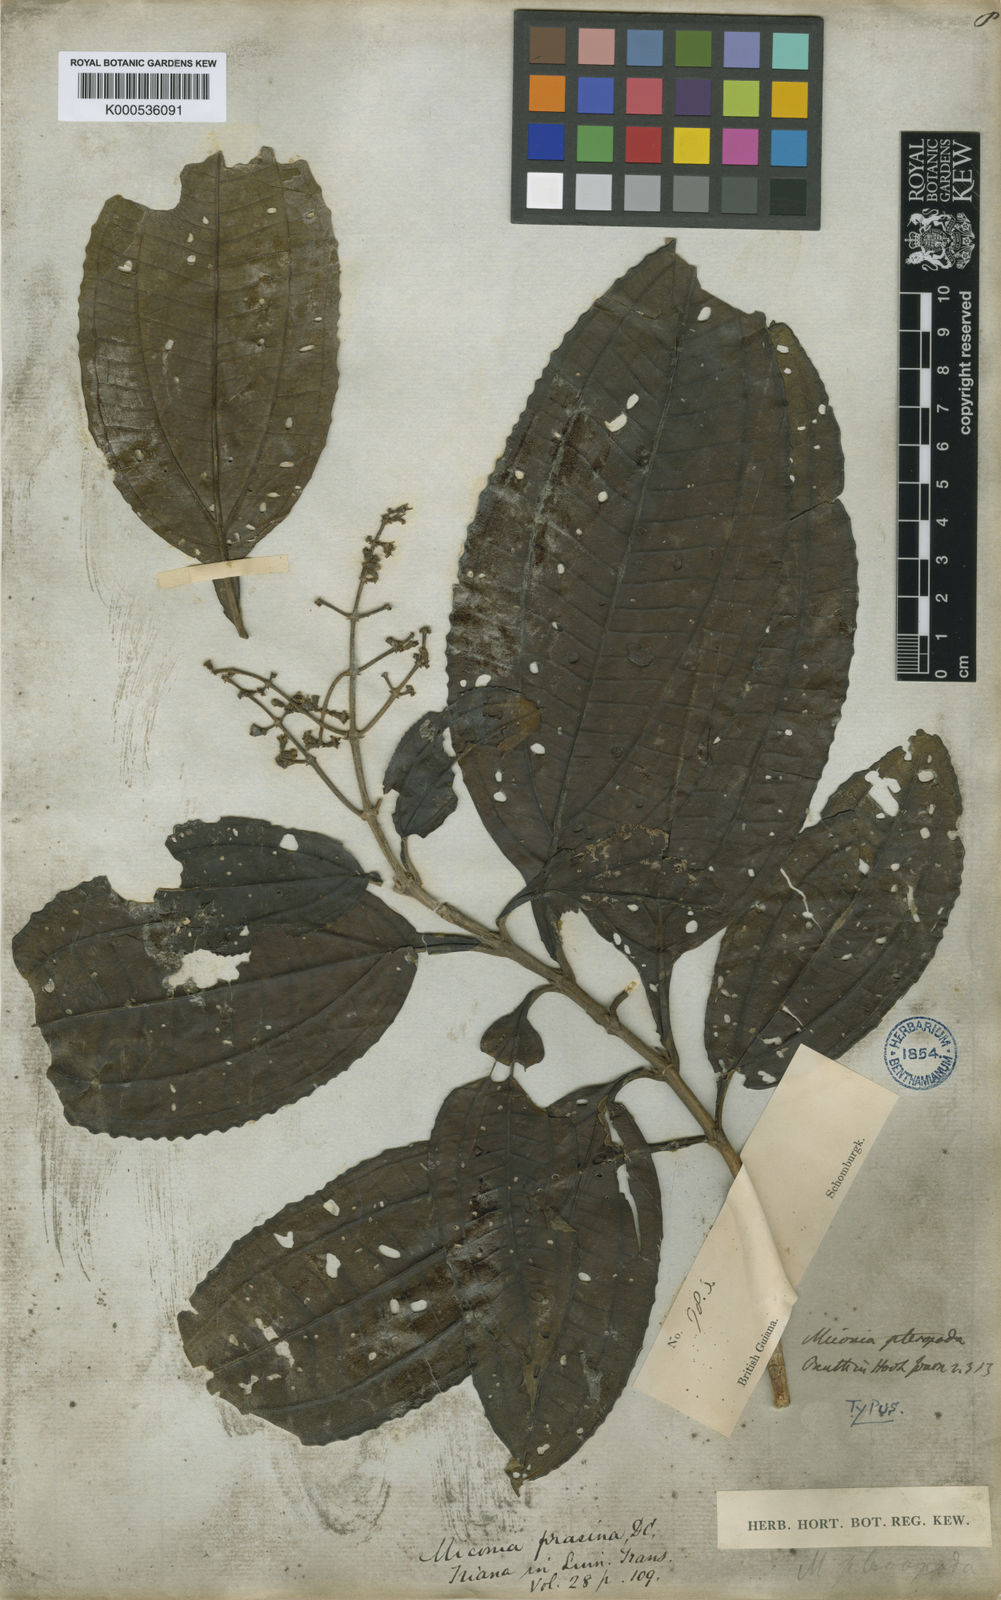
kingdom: Plantae
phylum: Tracheophyta
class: Magnoliopsida
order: Myrtales
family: Melastomataceae
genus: Miconia
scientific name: Miconia prasina
